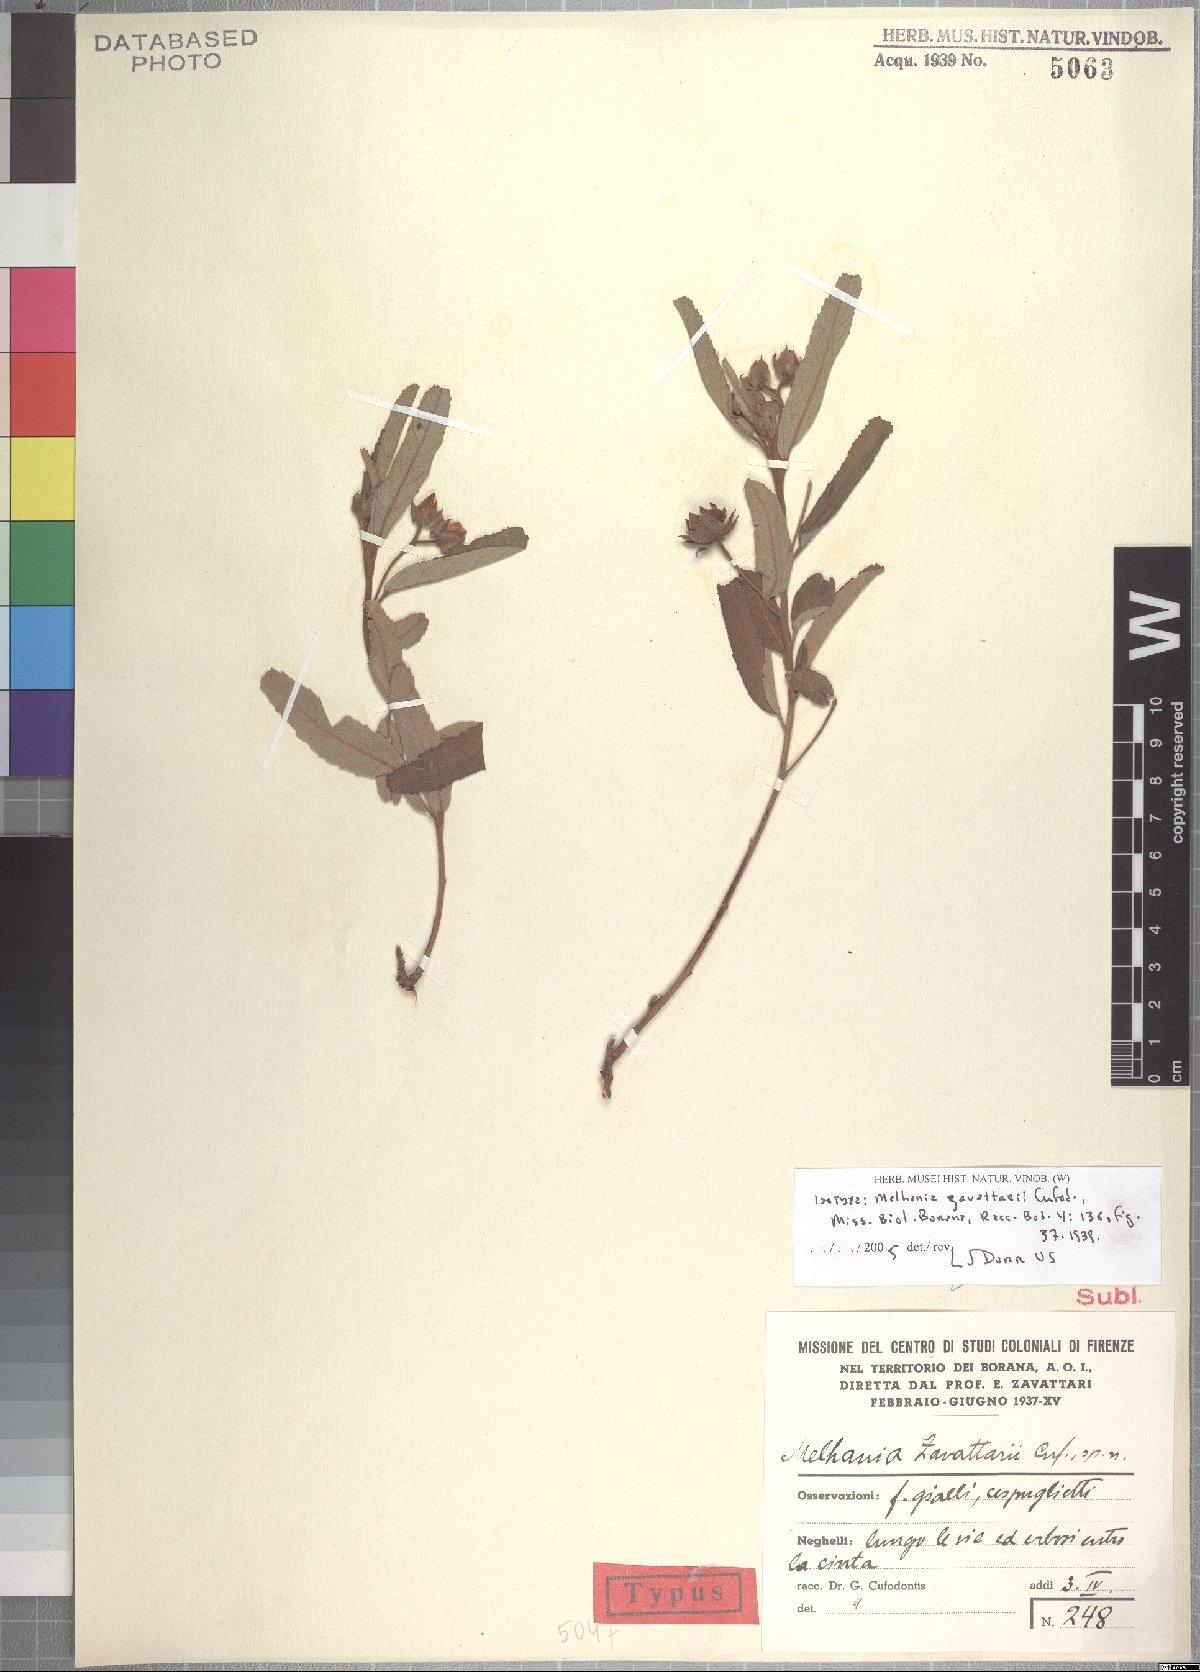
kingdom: Plantae
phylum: Tracheophyta
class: Magnoliopsida
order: Malvales
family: Malvaceae
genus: Melhania
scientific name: Melhania zavattarii
